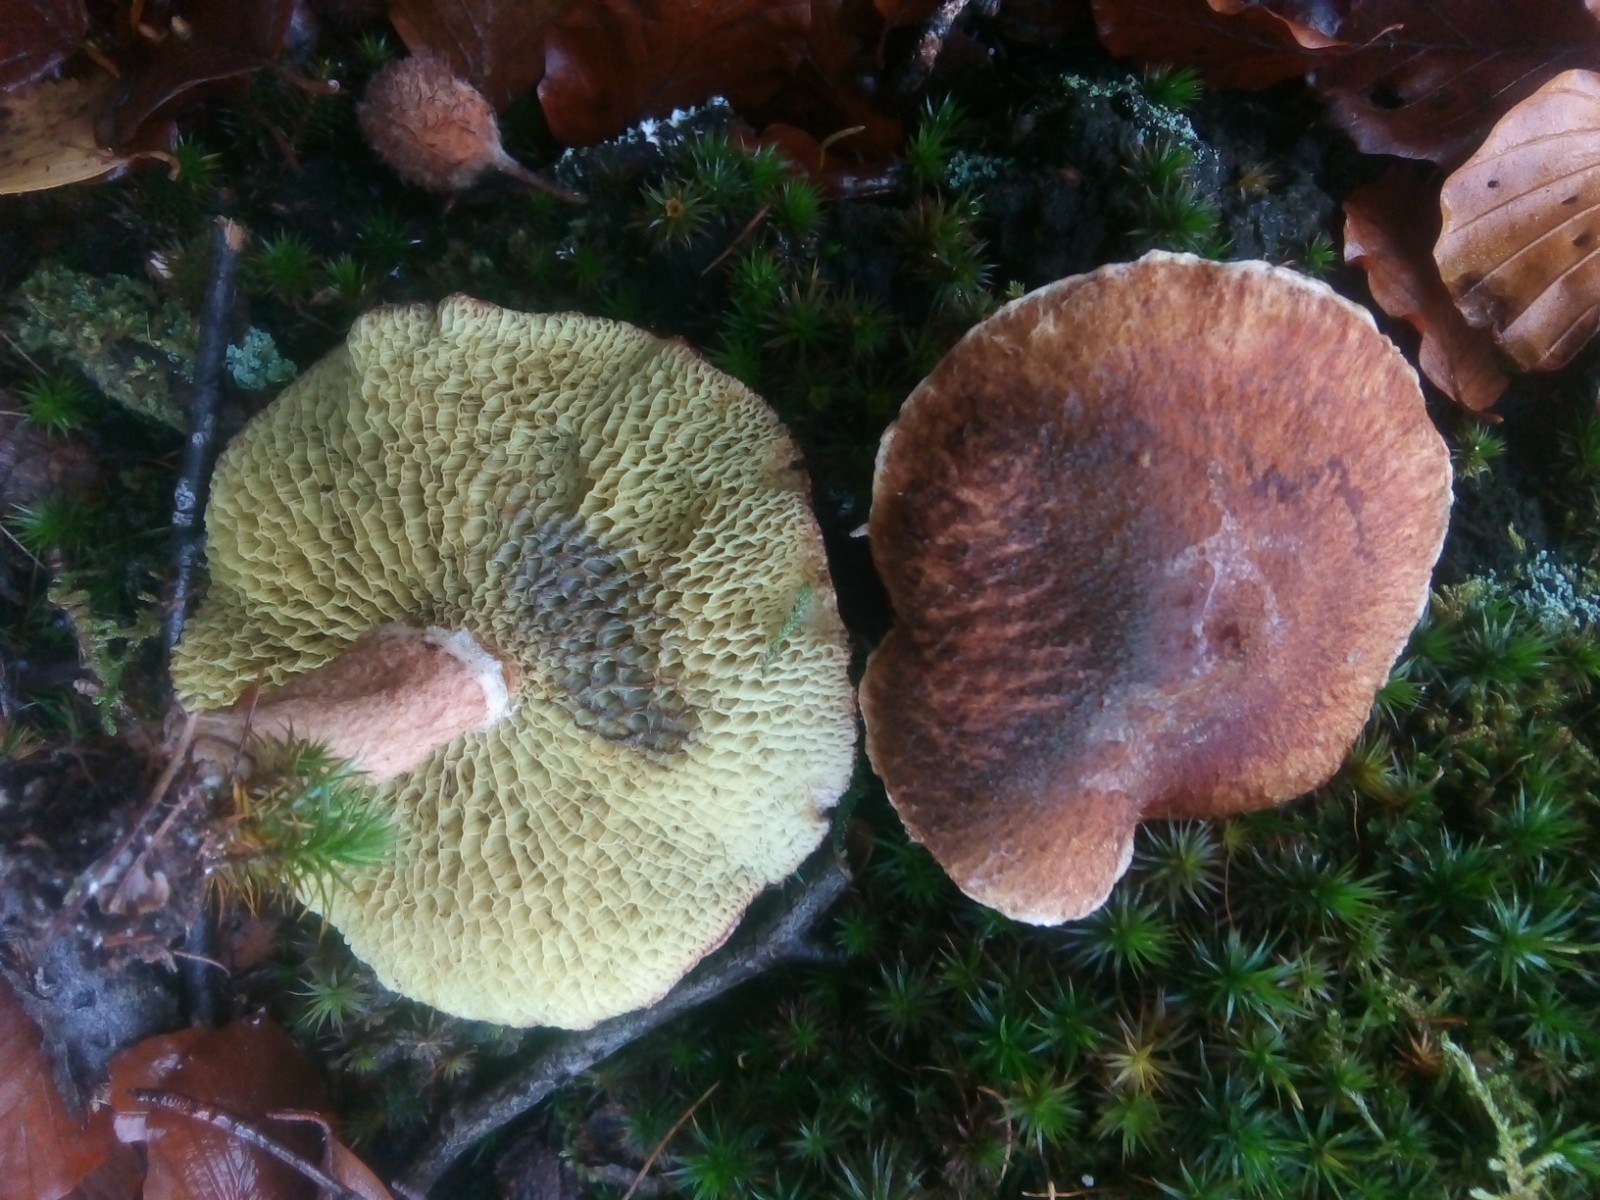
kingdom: Fungi
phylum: Basidiomycota
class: Agaricomycetes
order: Boletales
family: Suillaceae
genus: Suillus
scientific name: Suillus cavipes
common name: hulstokket slimrørhat
